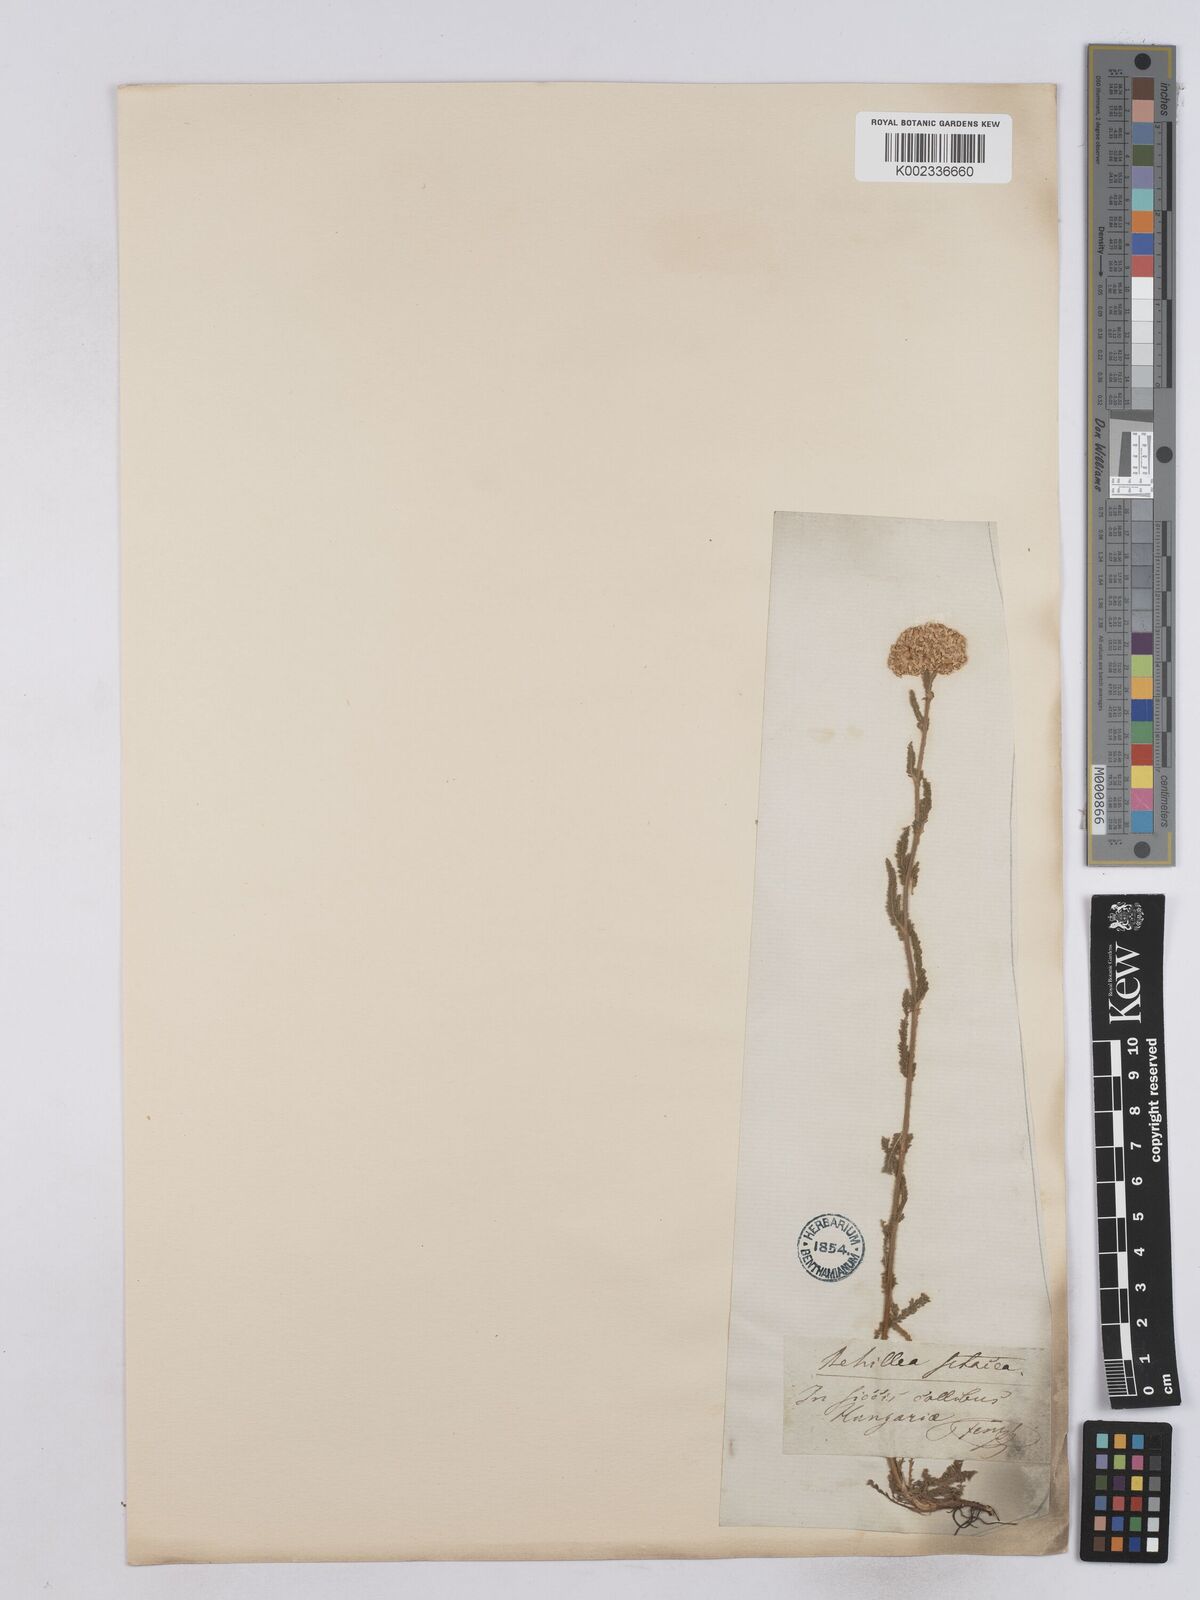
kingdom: Plantae
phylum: Tracheophyta
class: Magnoliopsida
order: Asterales
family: Asteraceae
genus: Achillea
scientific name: Achillea setacea
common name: Bristly yarrow
